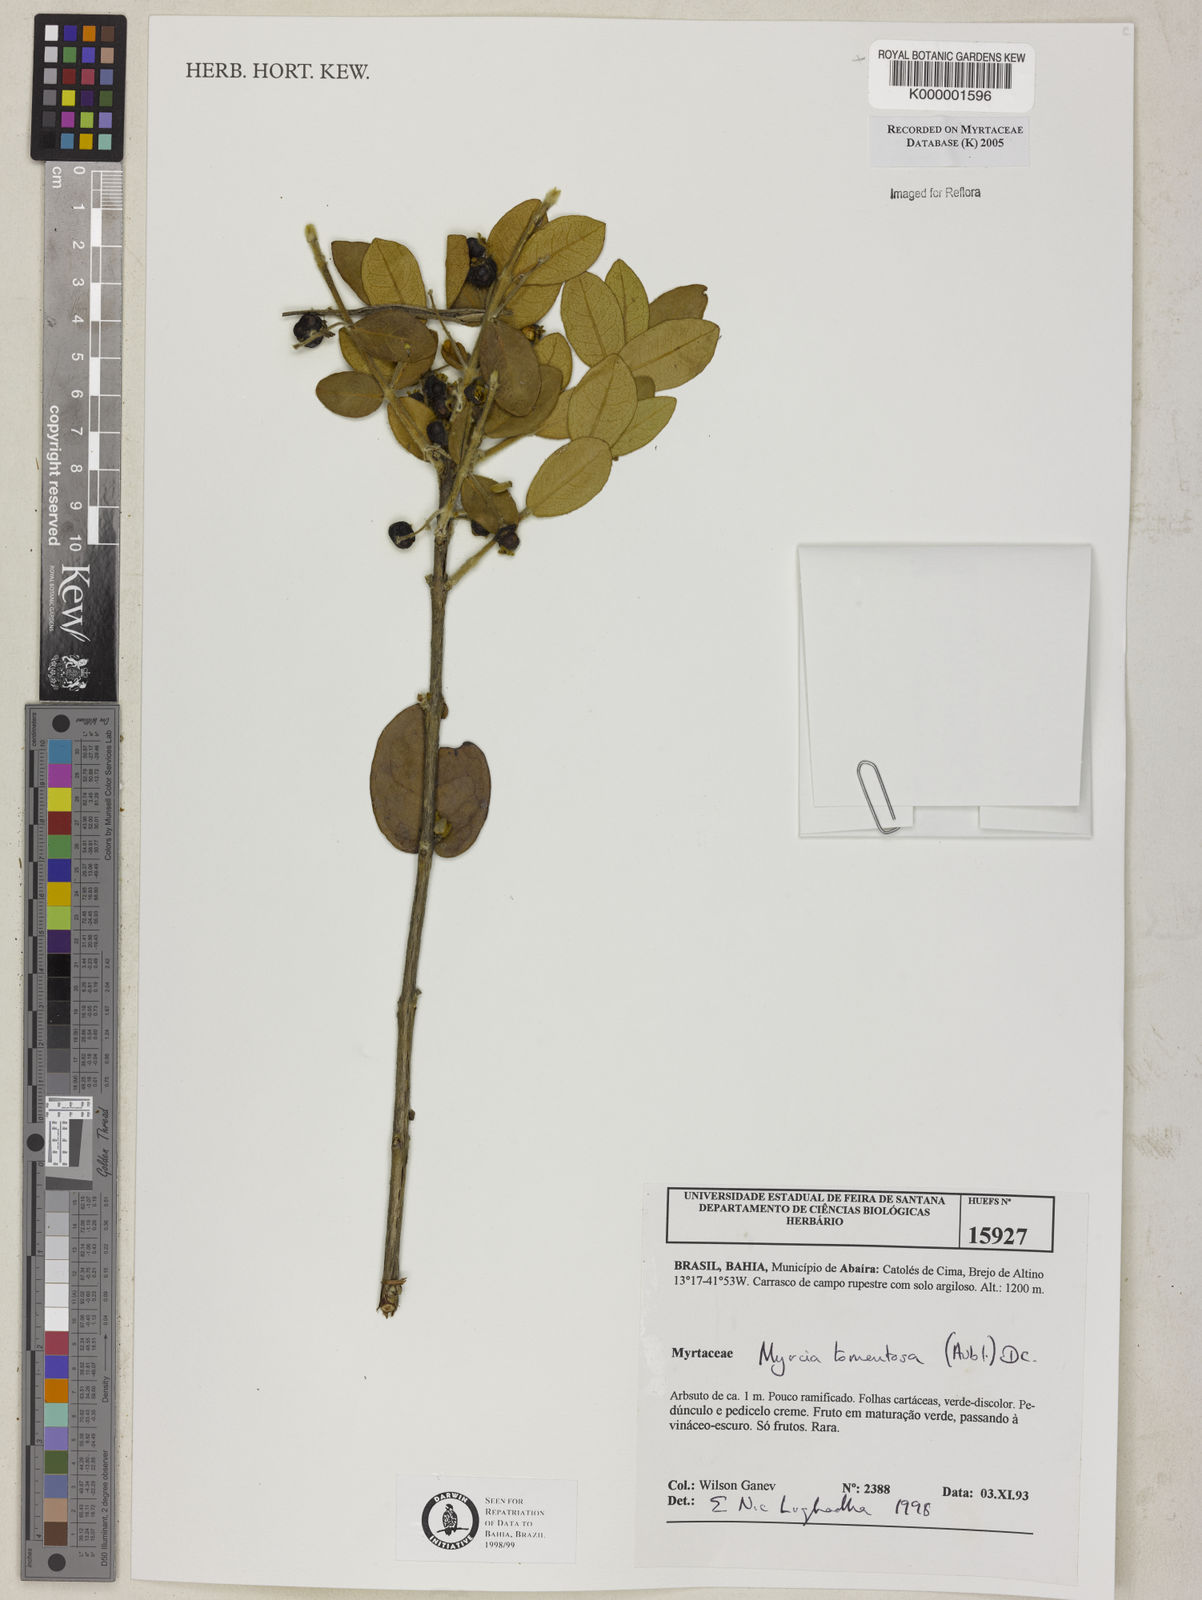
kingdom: Plantae
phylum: Tracheophyta
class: Magnoliopsida
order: Myrtales
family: Myrtaceae
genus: Myrcia
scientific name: Myrcia tomentosa
